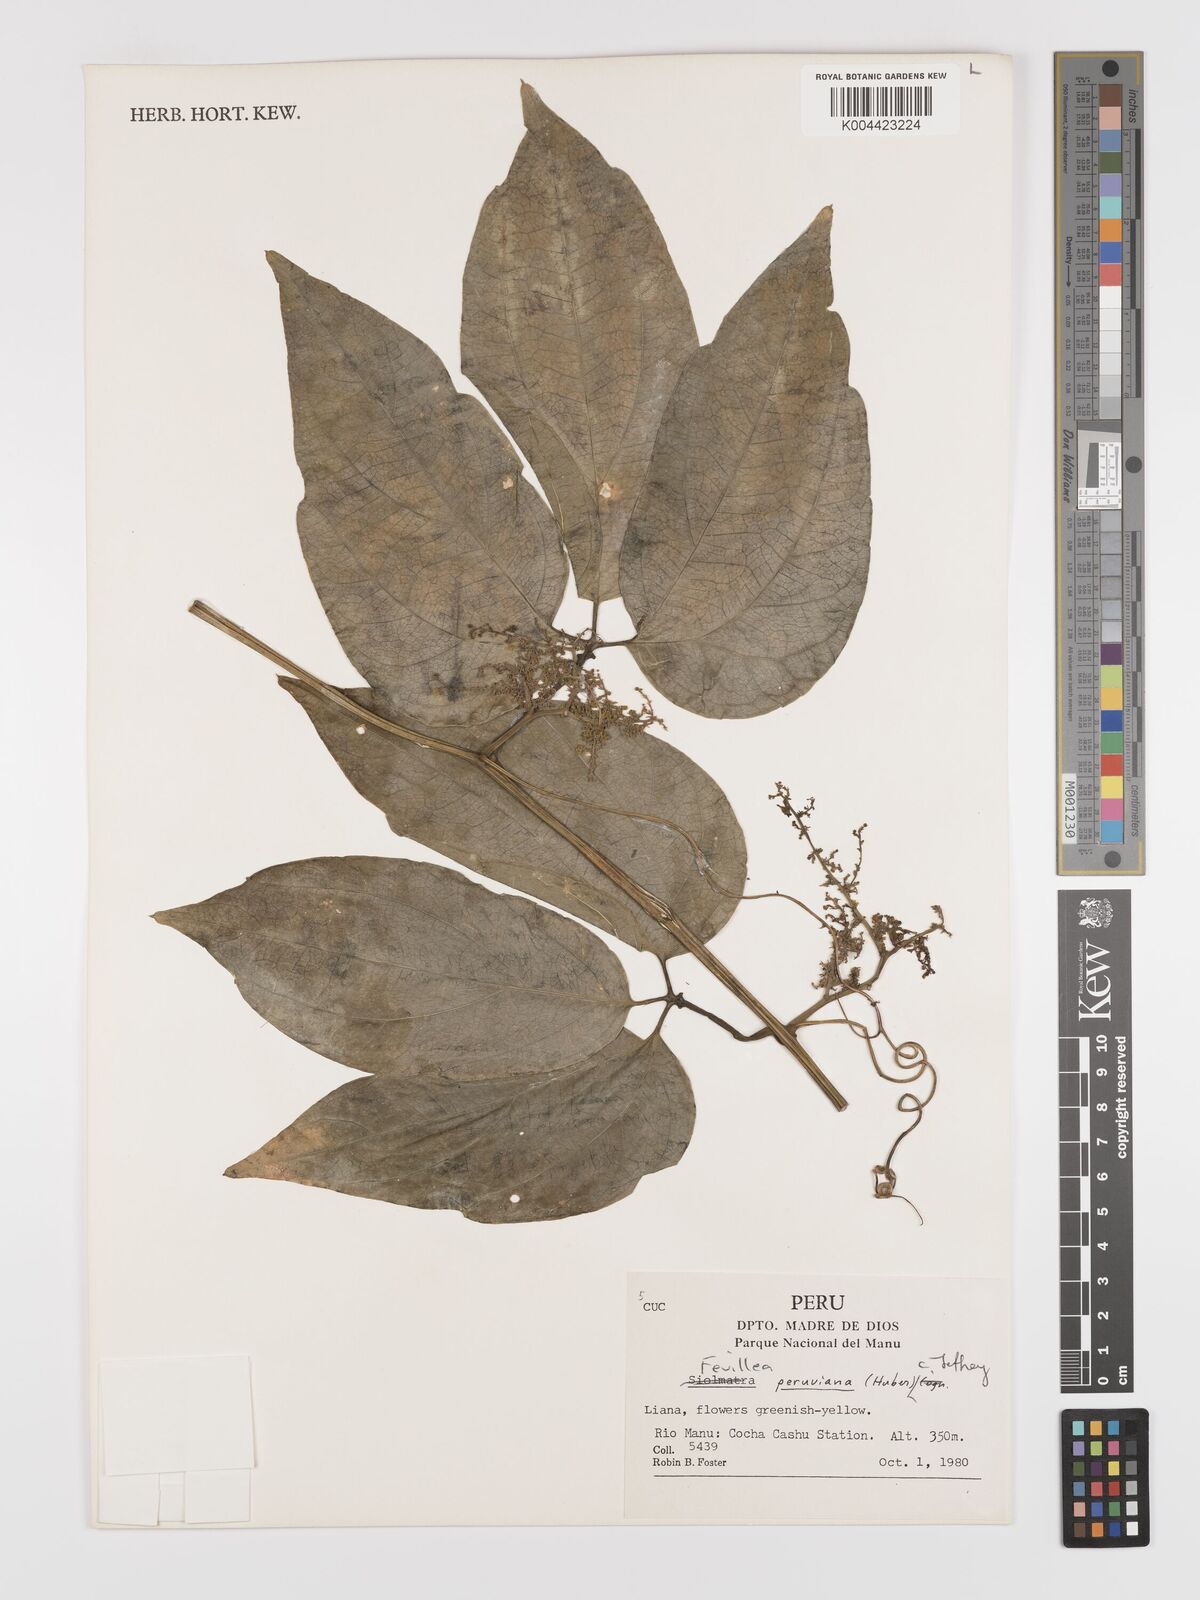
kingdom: Plantae
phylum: Tracheophyta
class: Magnoliopsida
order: Cucurbitales
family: Cucurbitaceae
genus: Fevillea
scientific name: Fevillea pedatifolia
